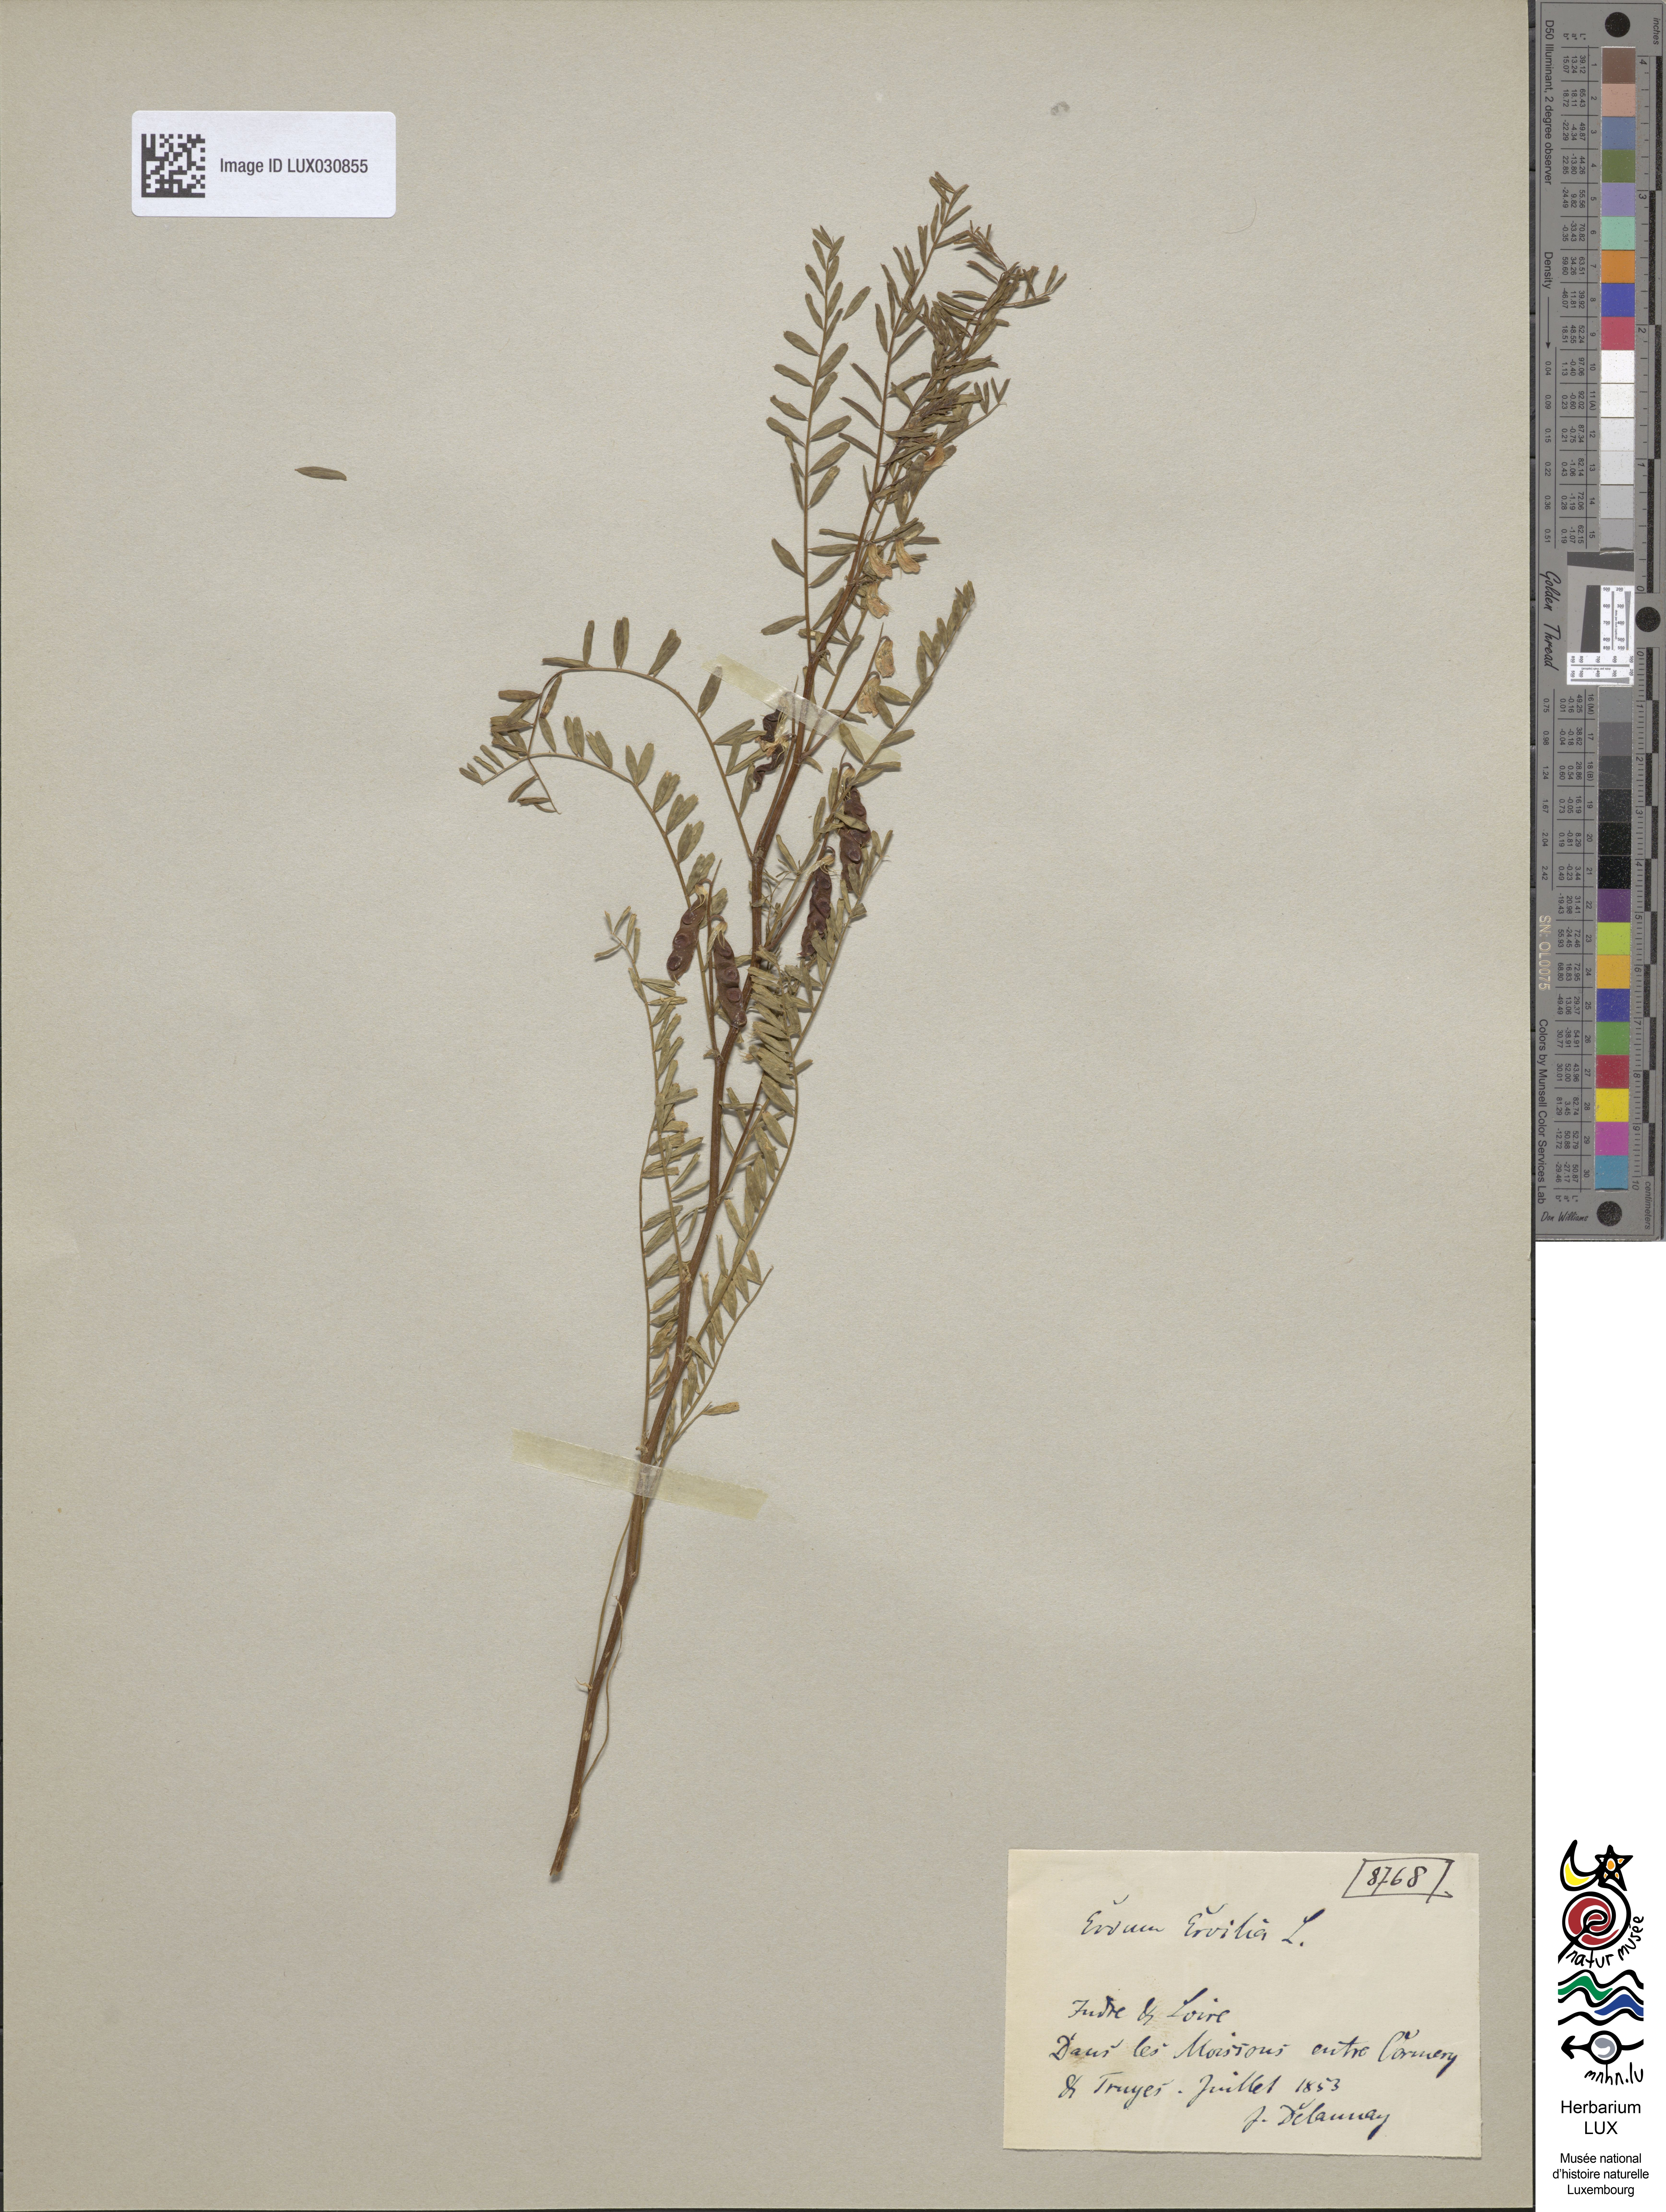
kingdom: Plantae
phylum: Tracheophyta
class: Magnoliopsida
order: Fabales
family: Fabaceae
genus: Vicia
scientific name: Vicia ervilia
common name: Bitter vetch
